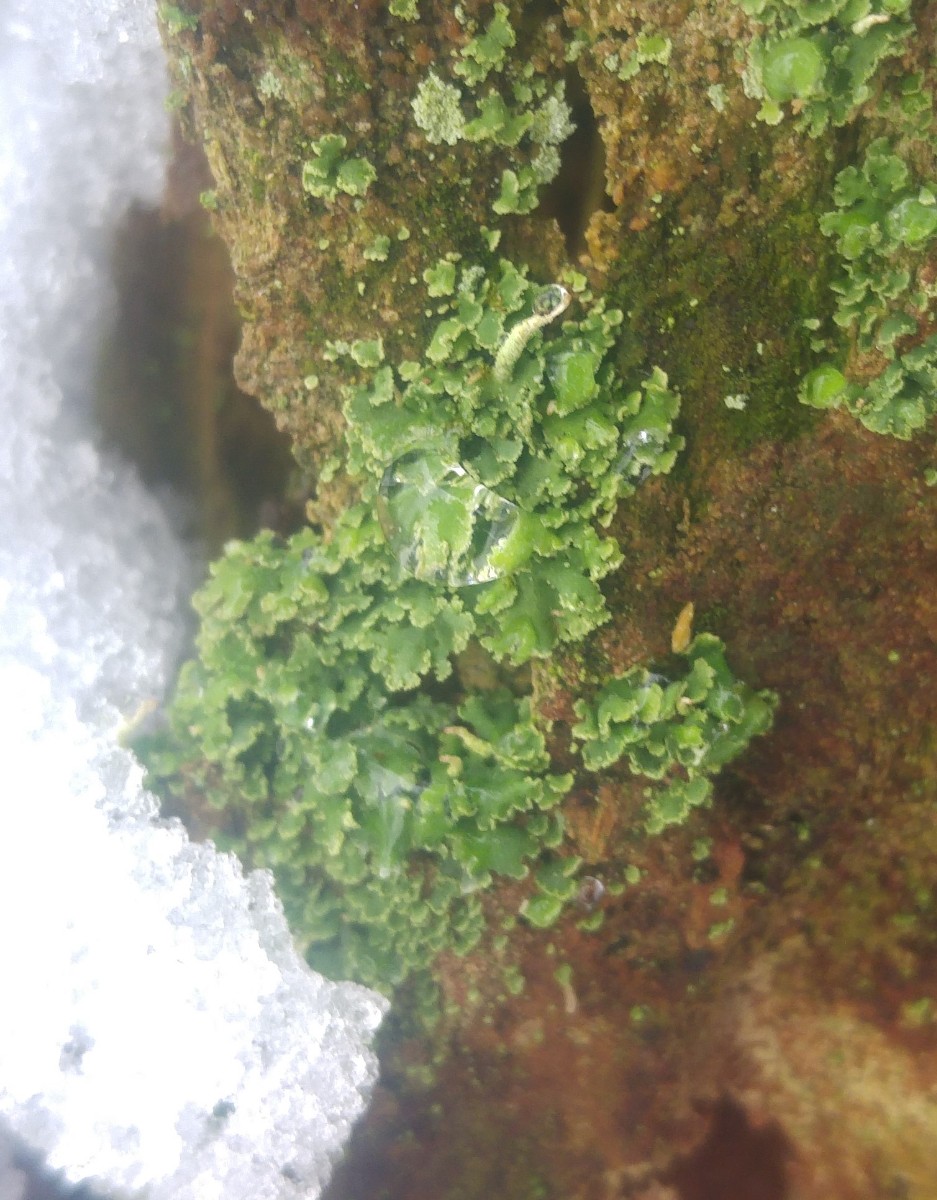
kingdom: Fungi
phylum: Ascomycota
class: Lecanoromycetes
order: Lecanorales
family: Cladoniaceae
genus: Cladonia
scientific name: Cladonia coniocraea
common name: træfods-bægerlav
